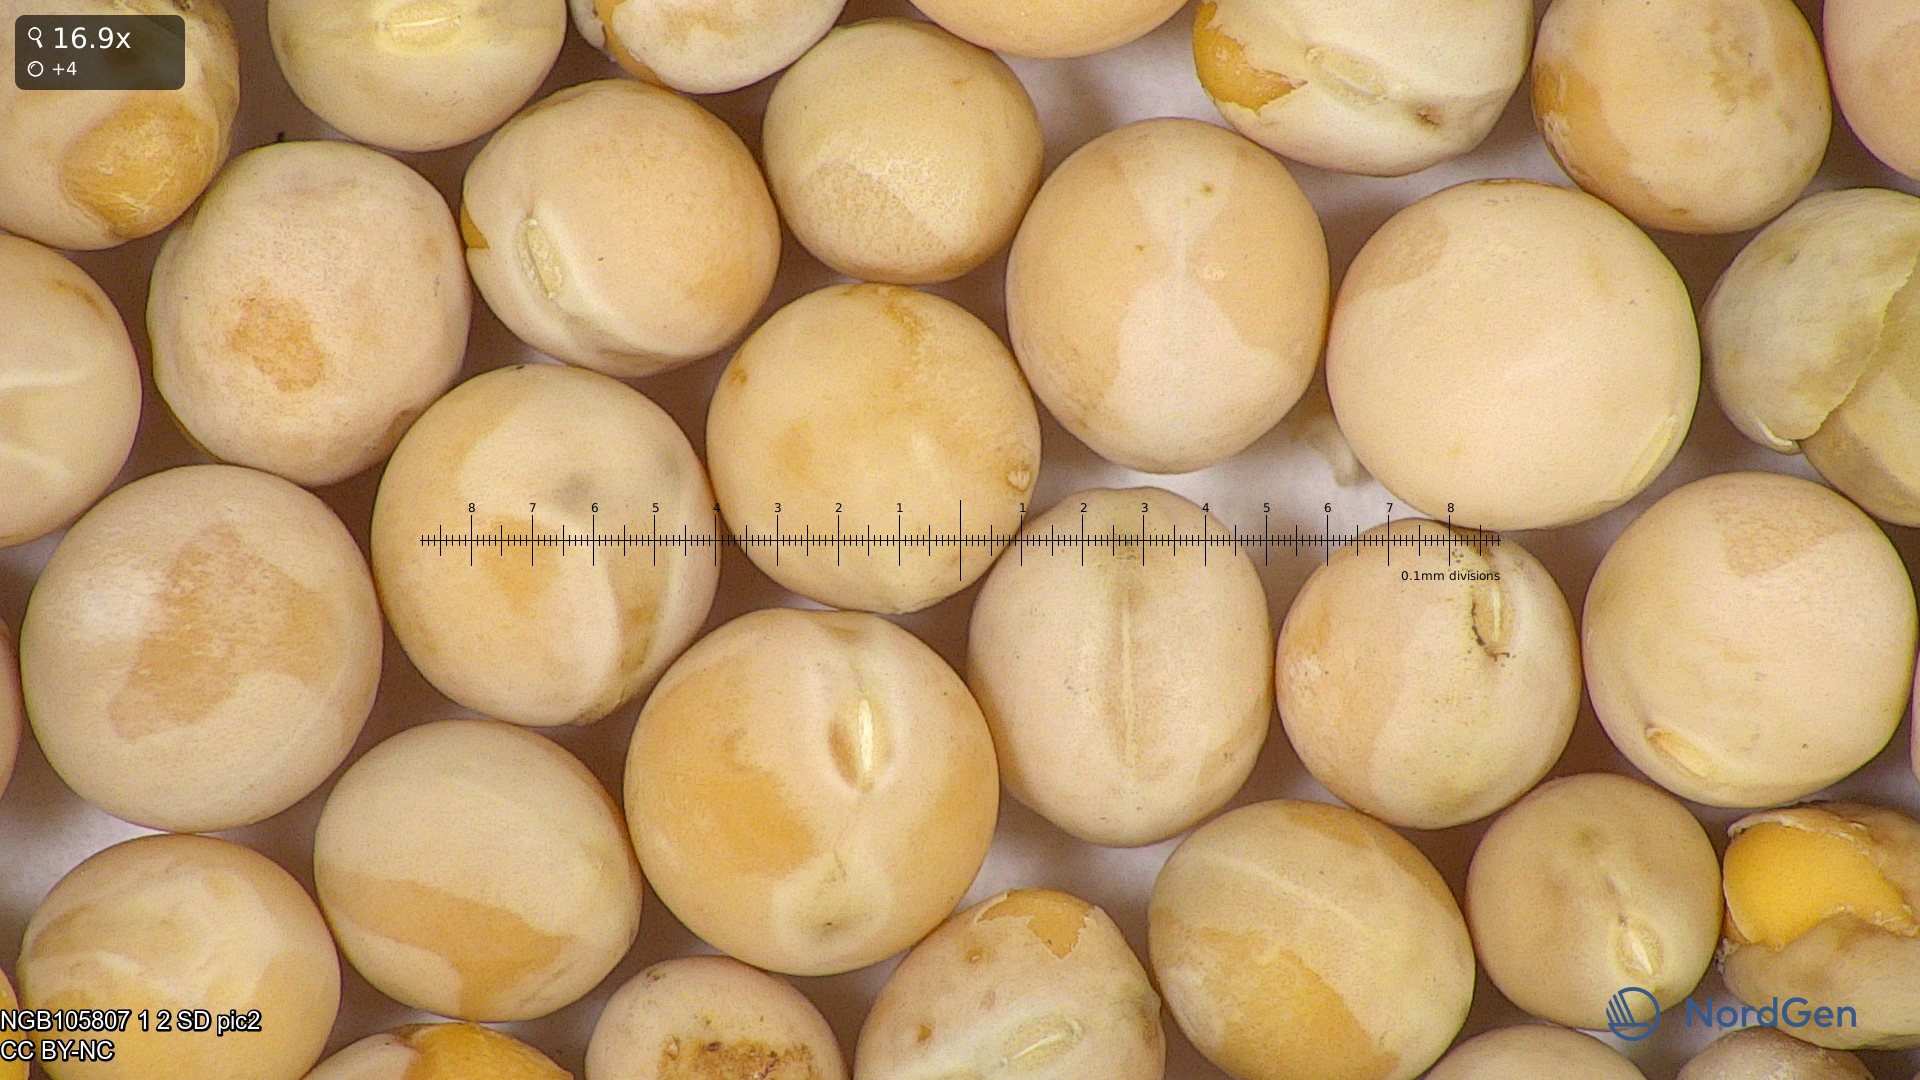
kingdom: Plantae
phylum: Tracheophyta
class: Magnoliopsida
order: Fabales
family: Fabaceae
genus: Lathyrus
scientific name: Lathyrus oleraceus
